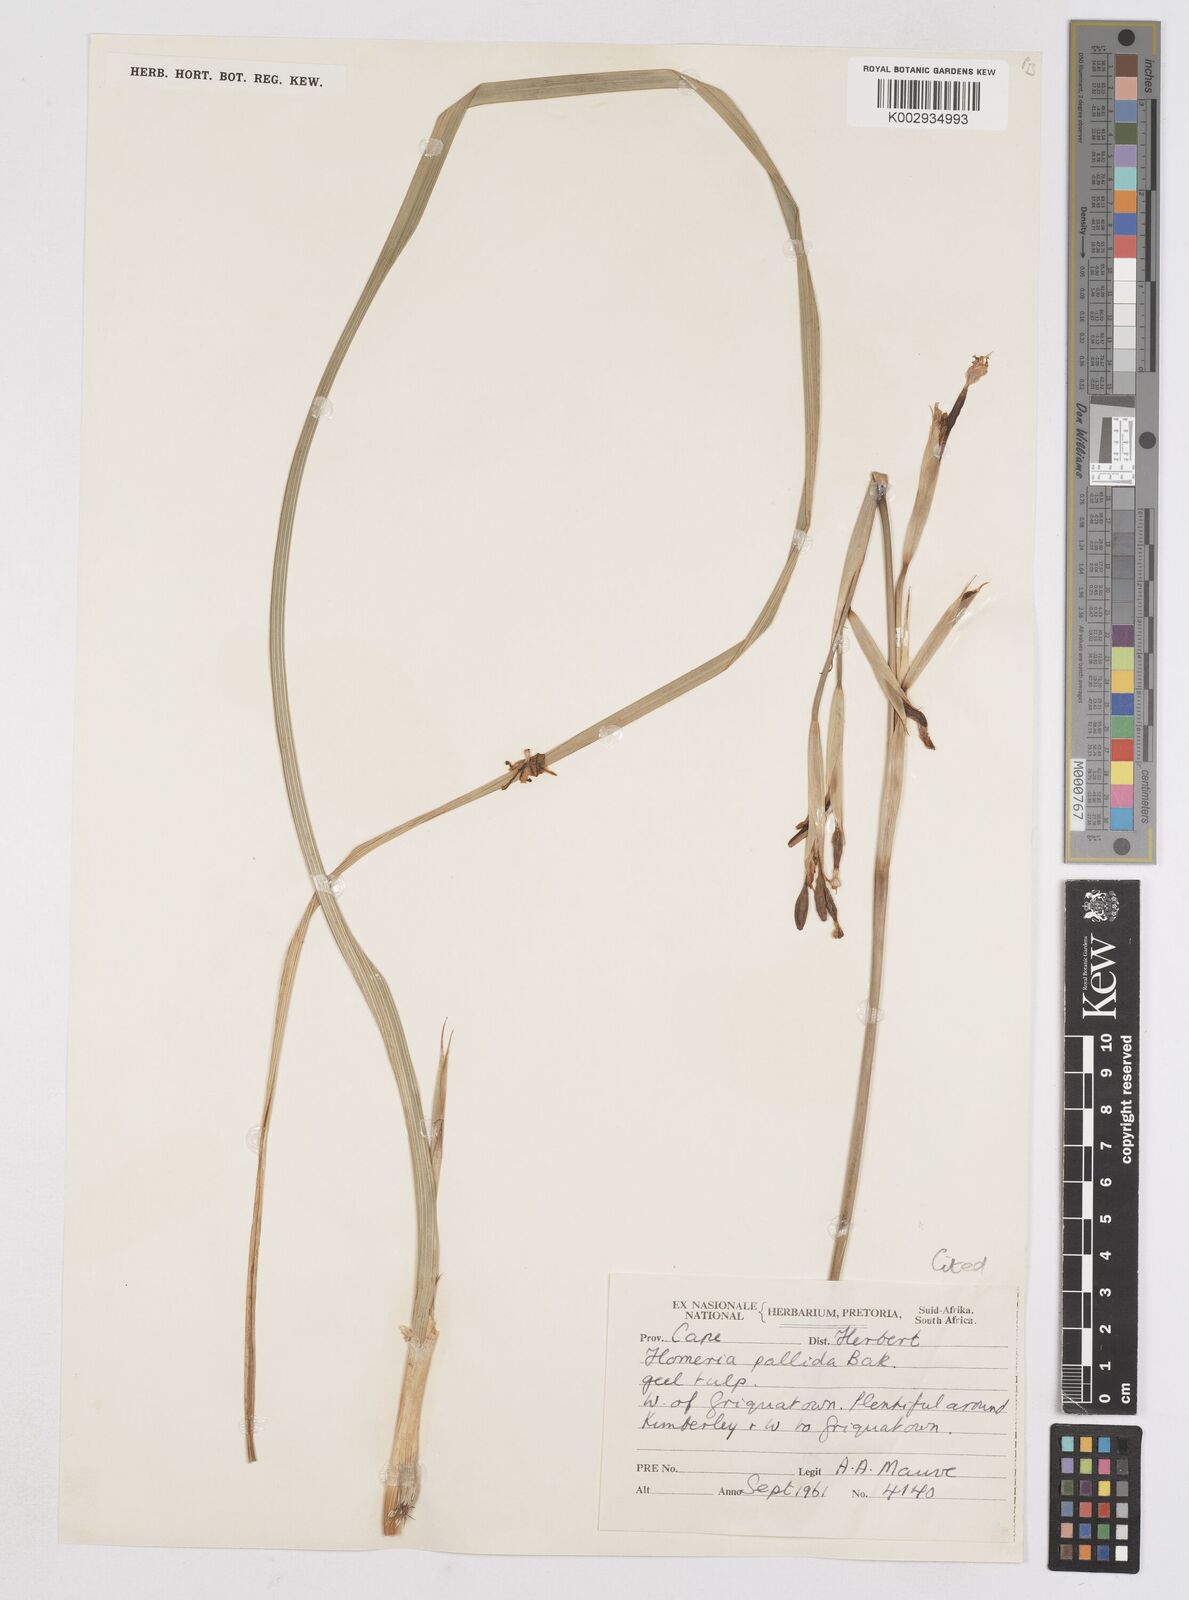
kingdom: Plantae
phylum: Tracheophyta
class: Liliopsida
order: Asparagales
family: Iridaceae
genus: Moraea
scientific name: Moraea pallida
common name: Yellow tulp
